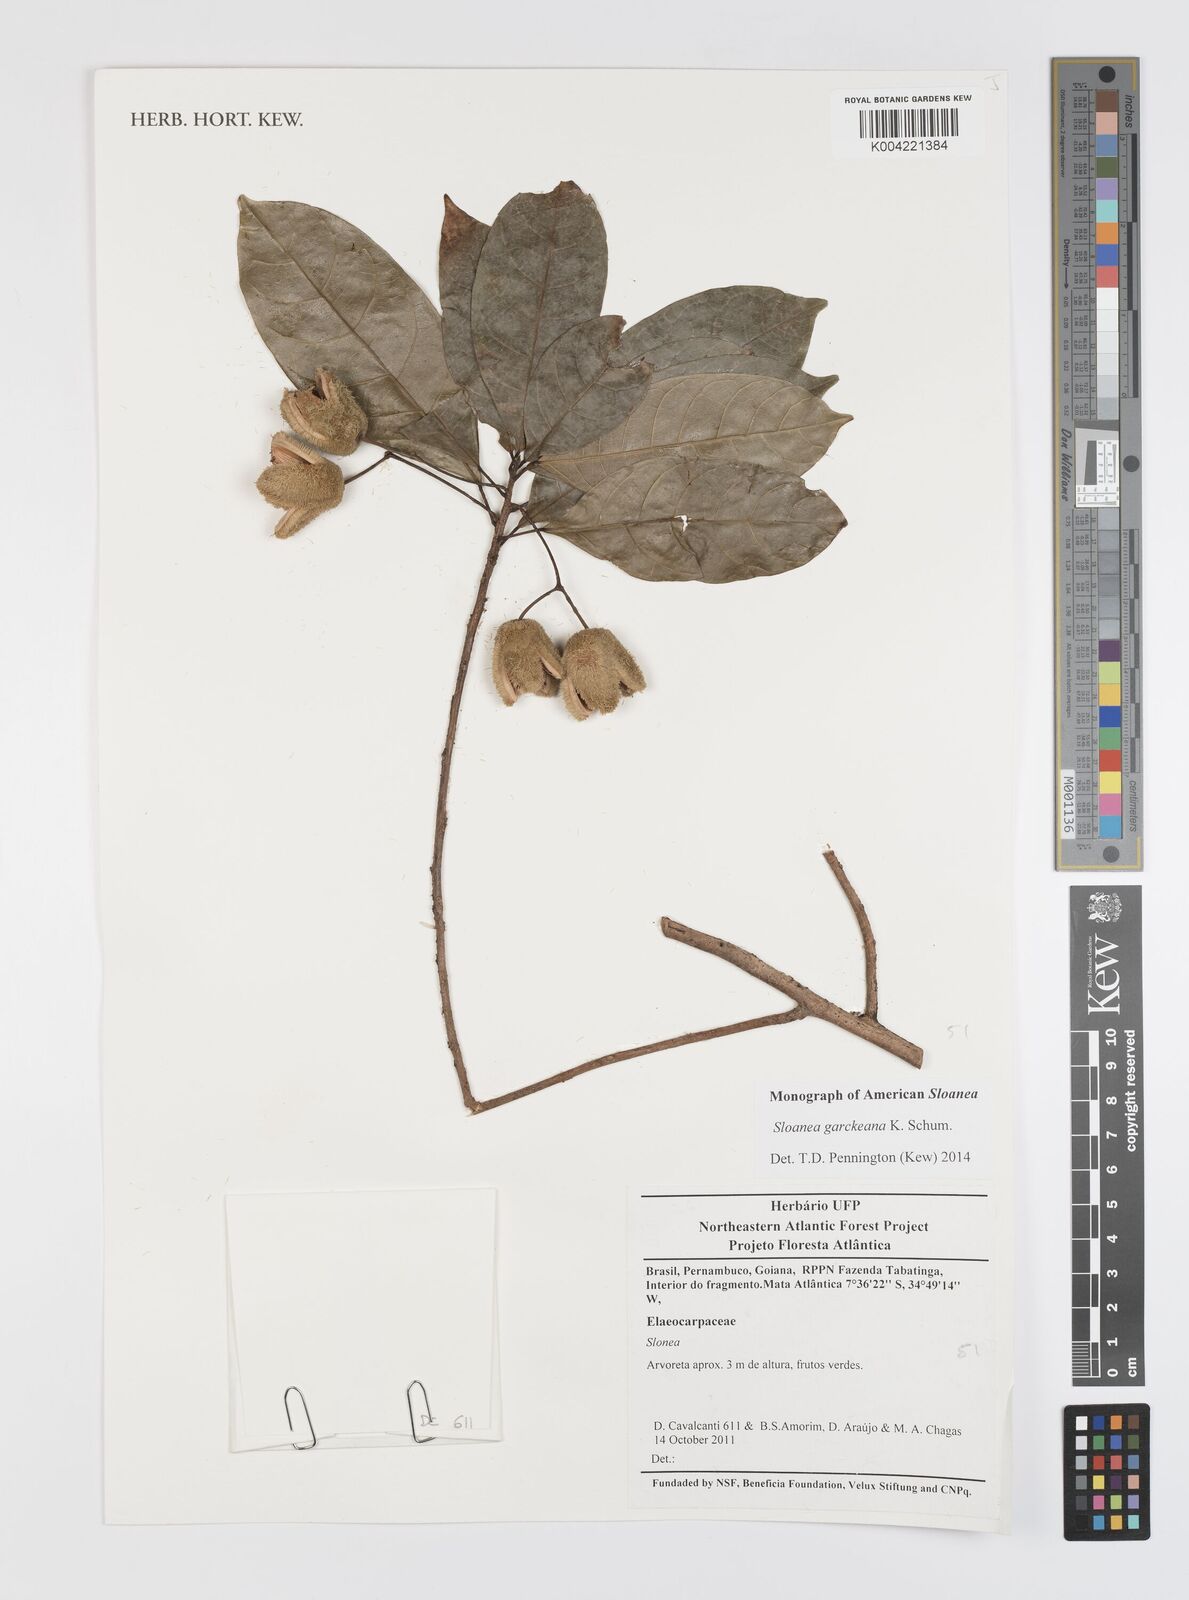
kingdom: Plantae
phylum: Tracheophyta
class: Magnoliopsida
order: Oxalidales
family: Elaeocarpaceae
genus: Sloanea
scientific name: Sloanea garckeana
